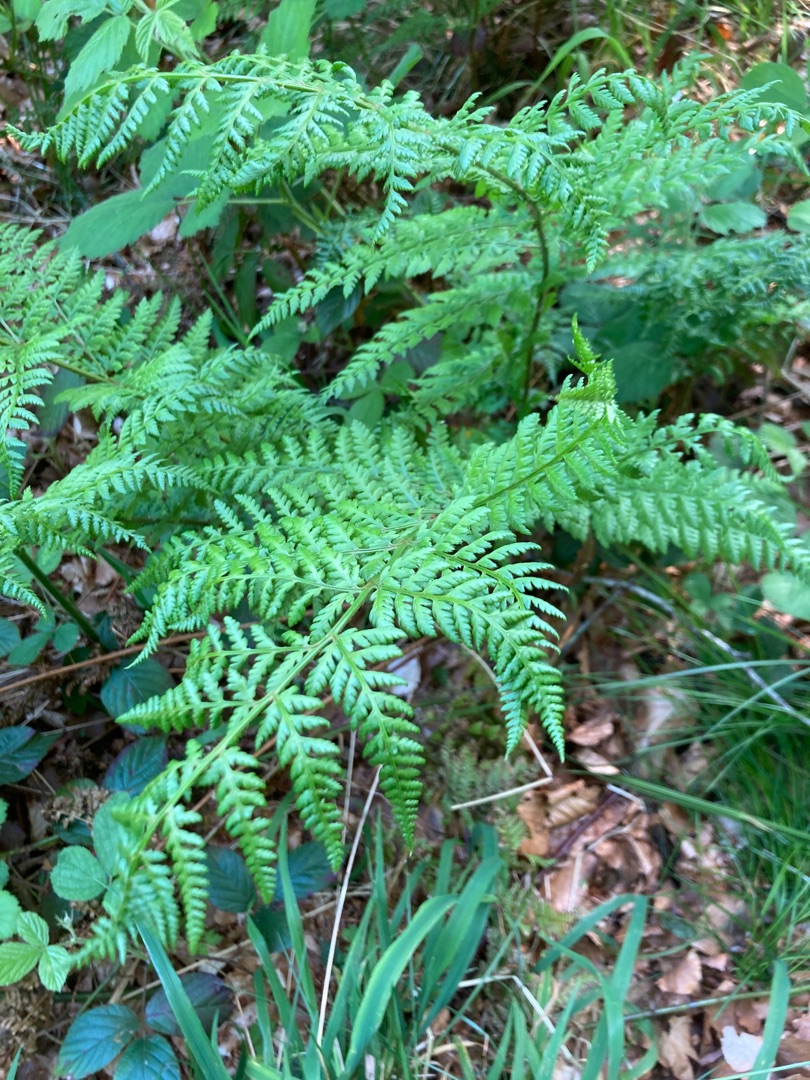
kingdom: Plantae
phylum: Tracheophyta
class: Polypodiopsida
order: Polypodiales
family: Dryopteridaceae
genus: Dryopteris
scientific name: Dryopteris dilatata
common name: Bredbladet mangeløv
